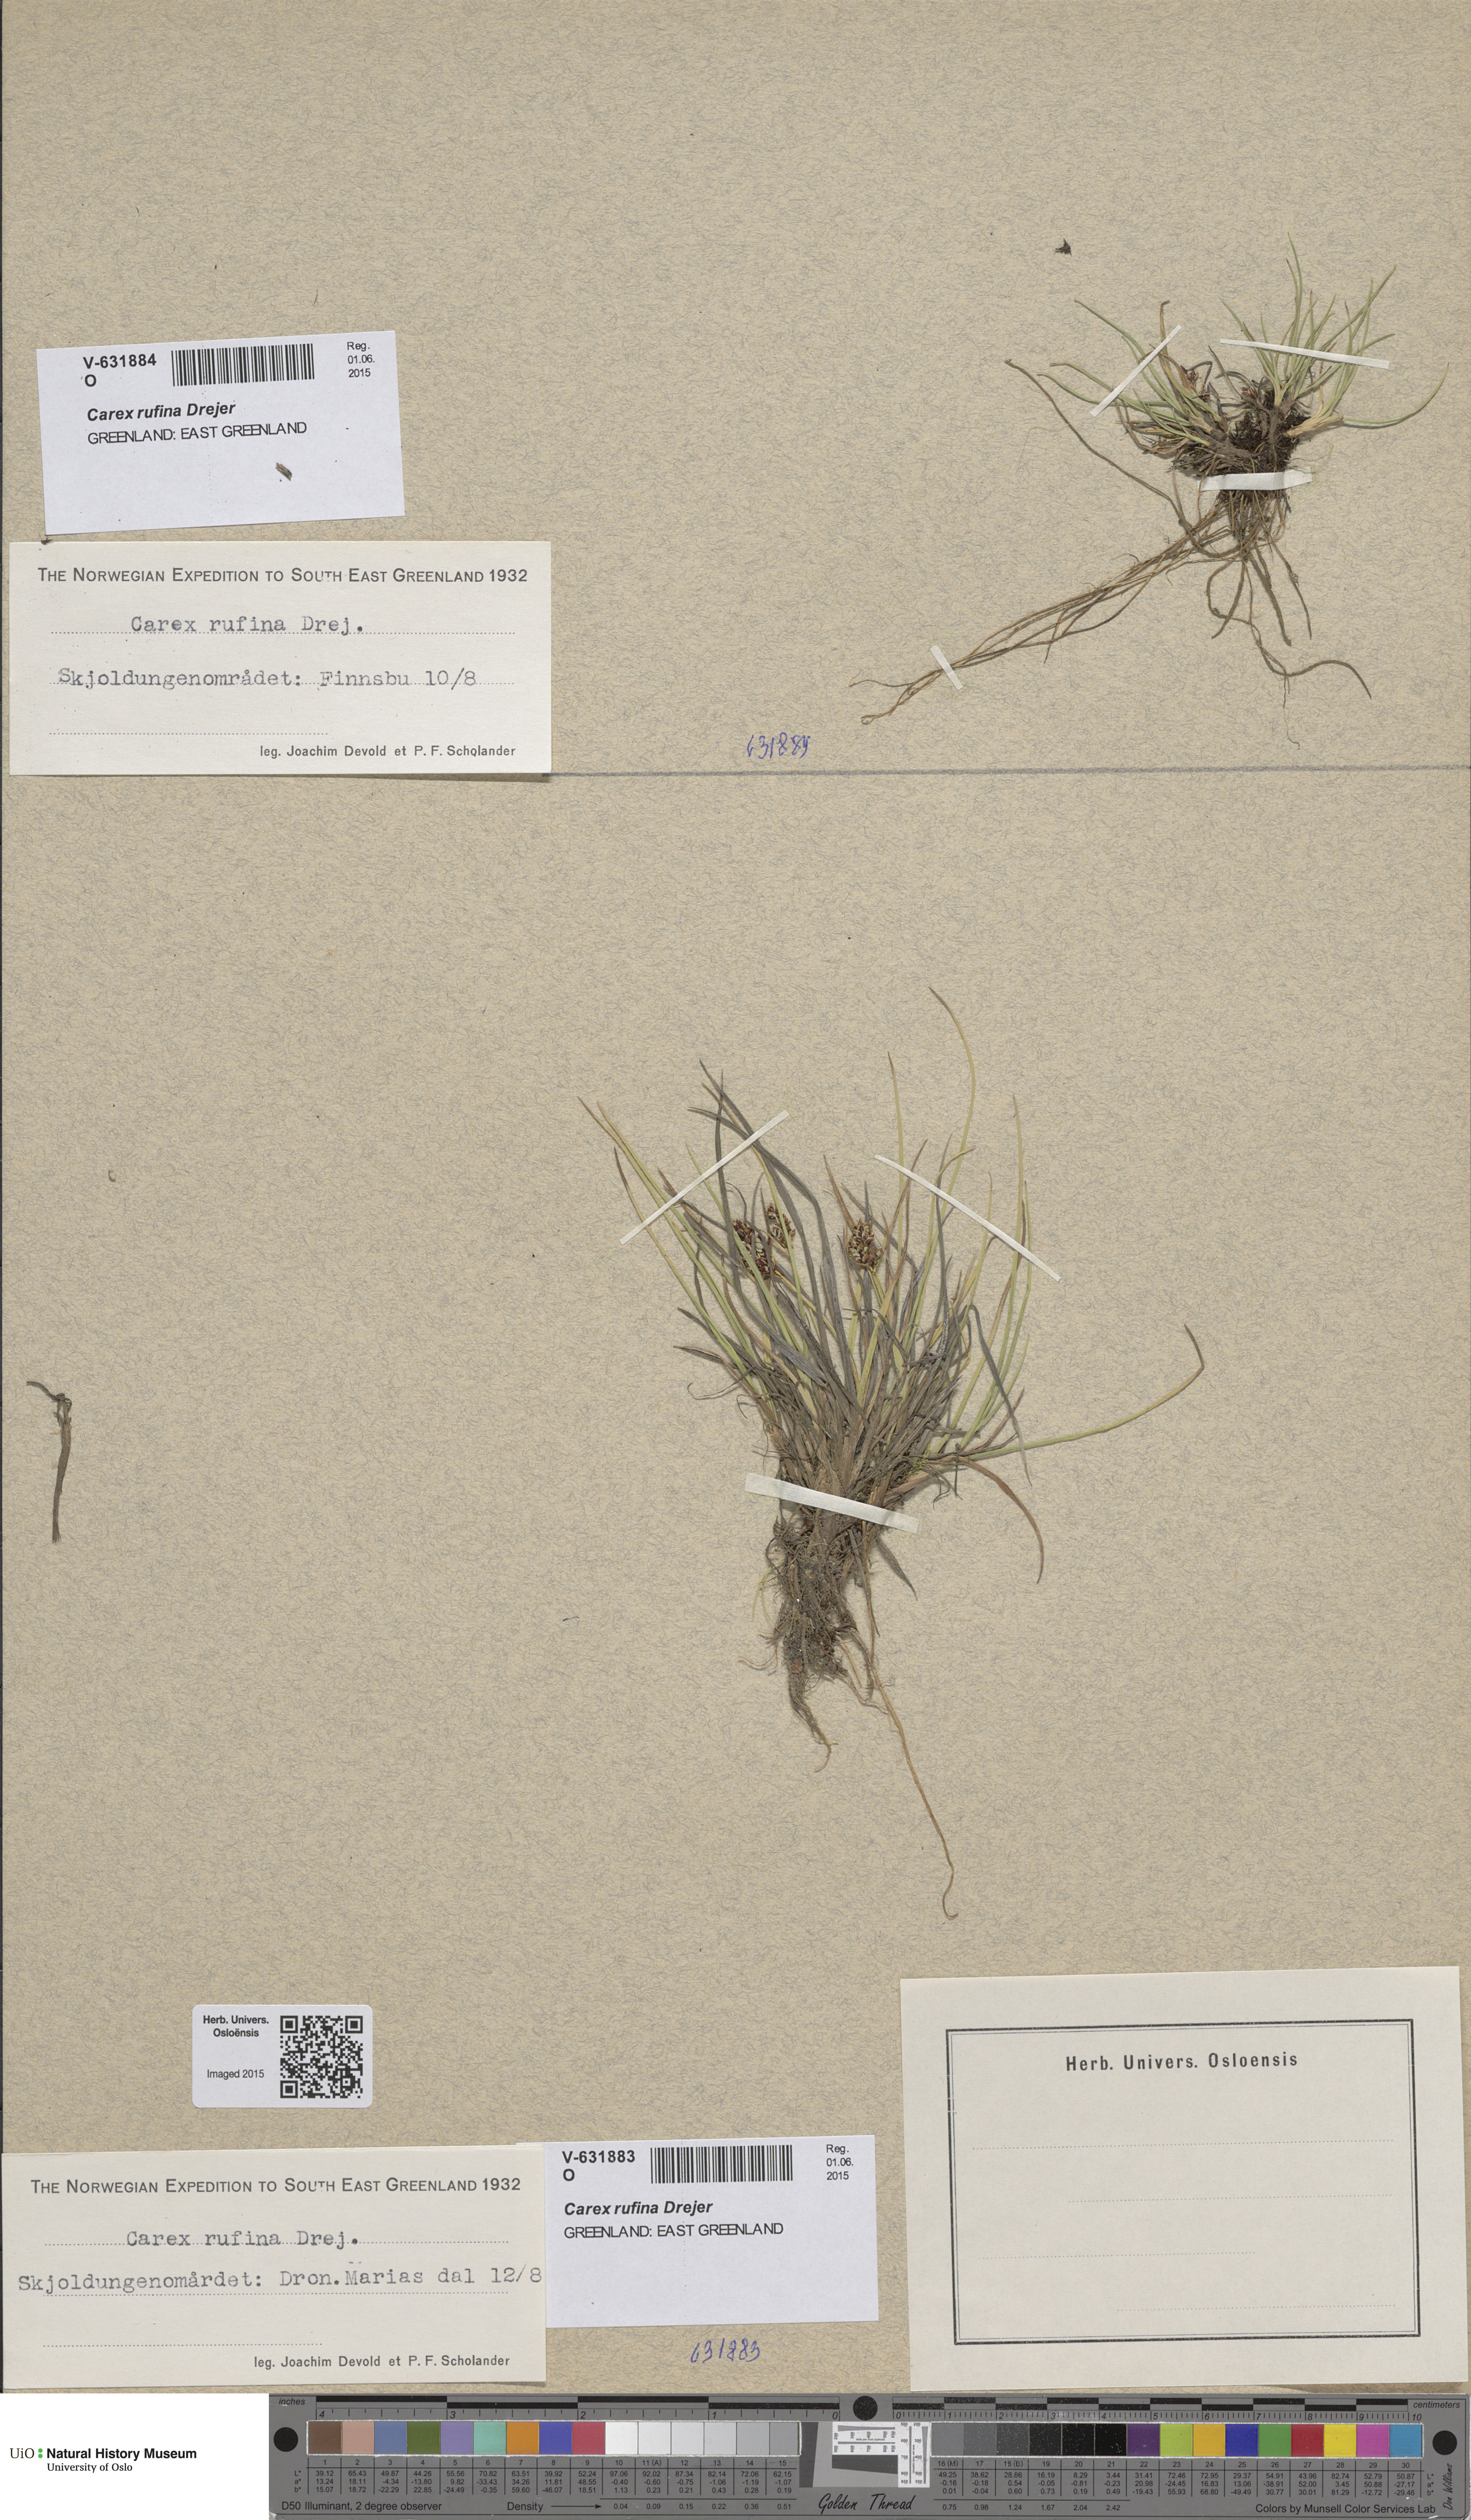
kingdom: Plantae
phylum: Tracheophyta
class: Liliopsida
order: Poales
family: Cyperaceae
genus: Carex
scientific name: Carex rufina
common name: Reddish sedge
